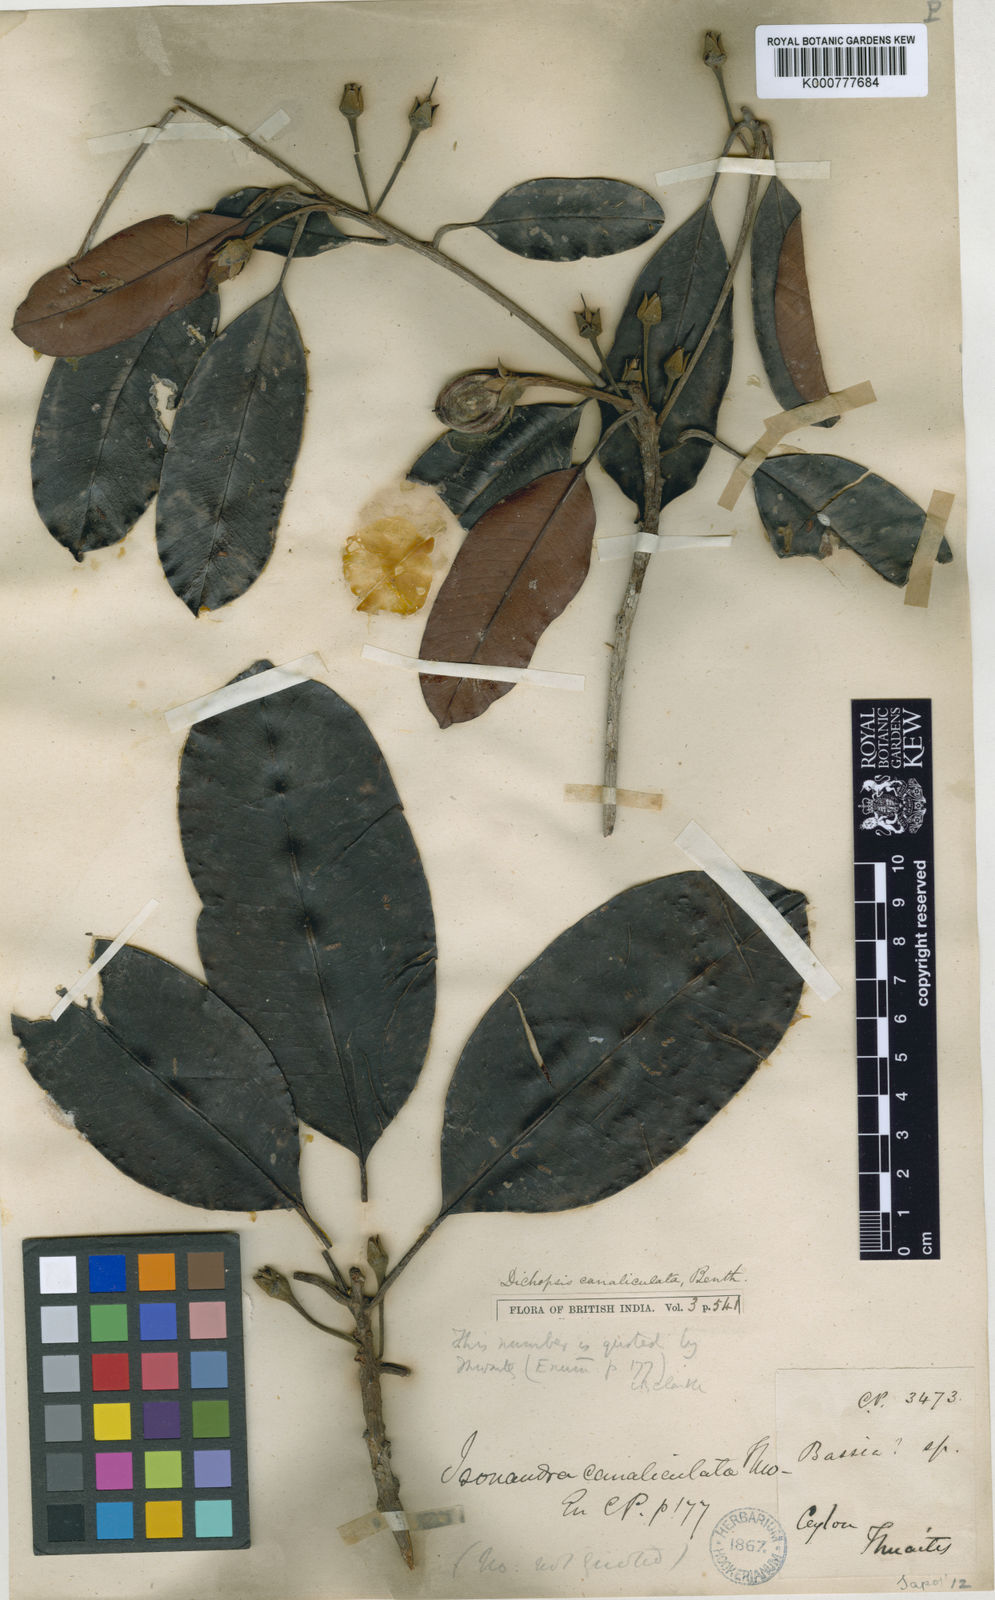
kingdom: Plantae
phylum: Tracheophyta
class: Magnoliopsida
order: Ericales
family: Sapotaceae
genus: Palaquium
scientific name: Palaquium canaliculatum
